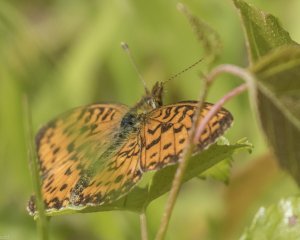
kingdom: Animalia
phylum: Arthropoda
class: Insecta
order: Lepidoptera
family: Nymphalidae
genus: Boloria
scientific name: Boloria selene
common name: Silver-bordered Fritillary
